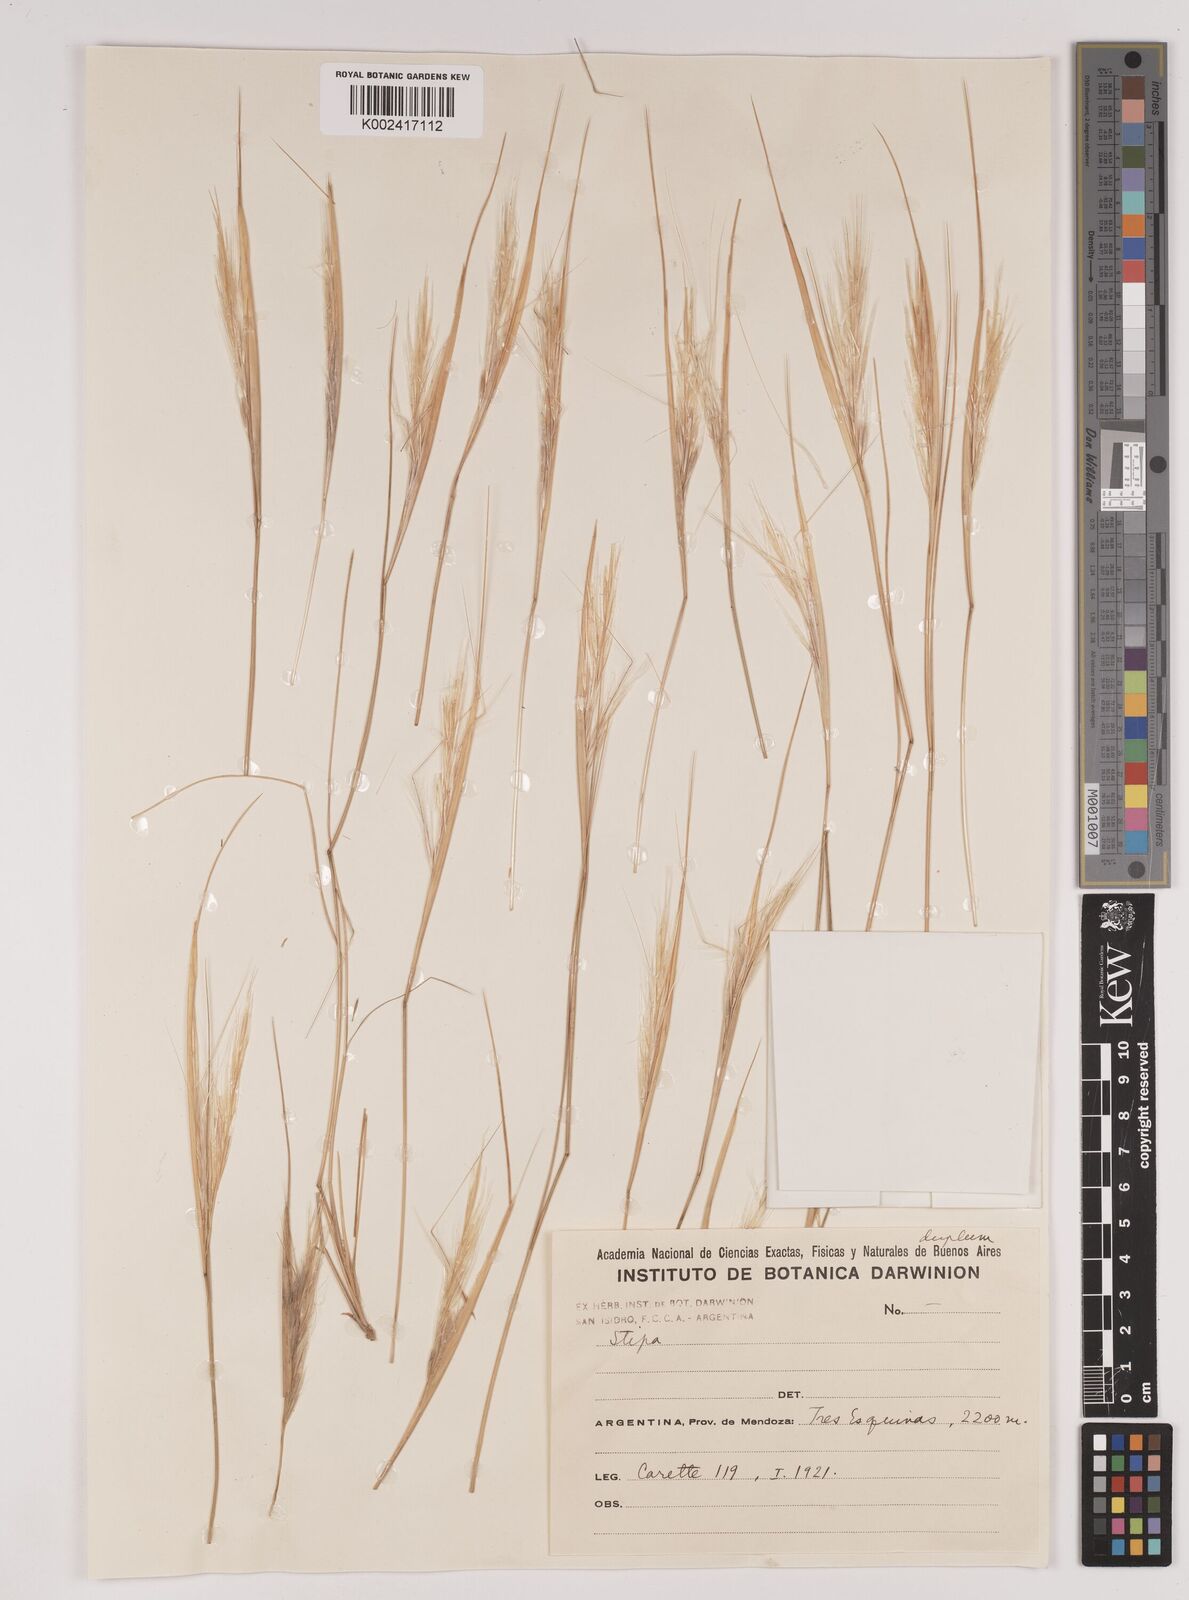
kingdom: Plantae
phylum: Tracheophyta
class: Liliopsida
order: Poales
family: Poaceae
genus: Stipa
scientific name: Stipa
